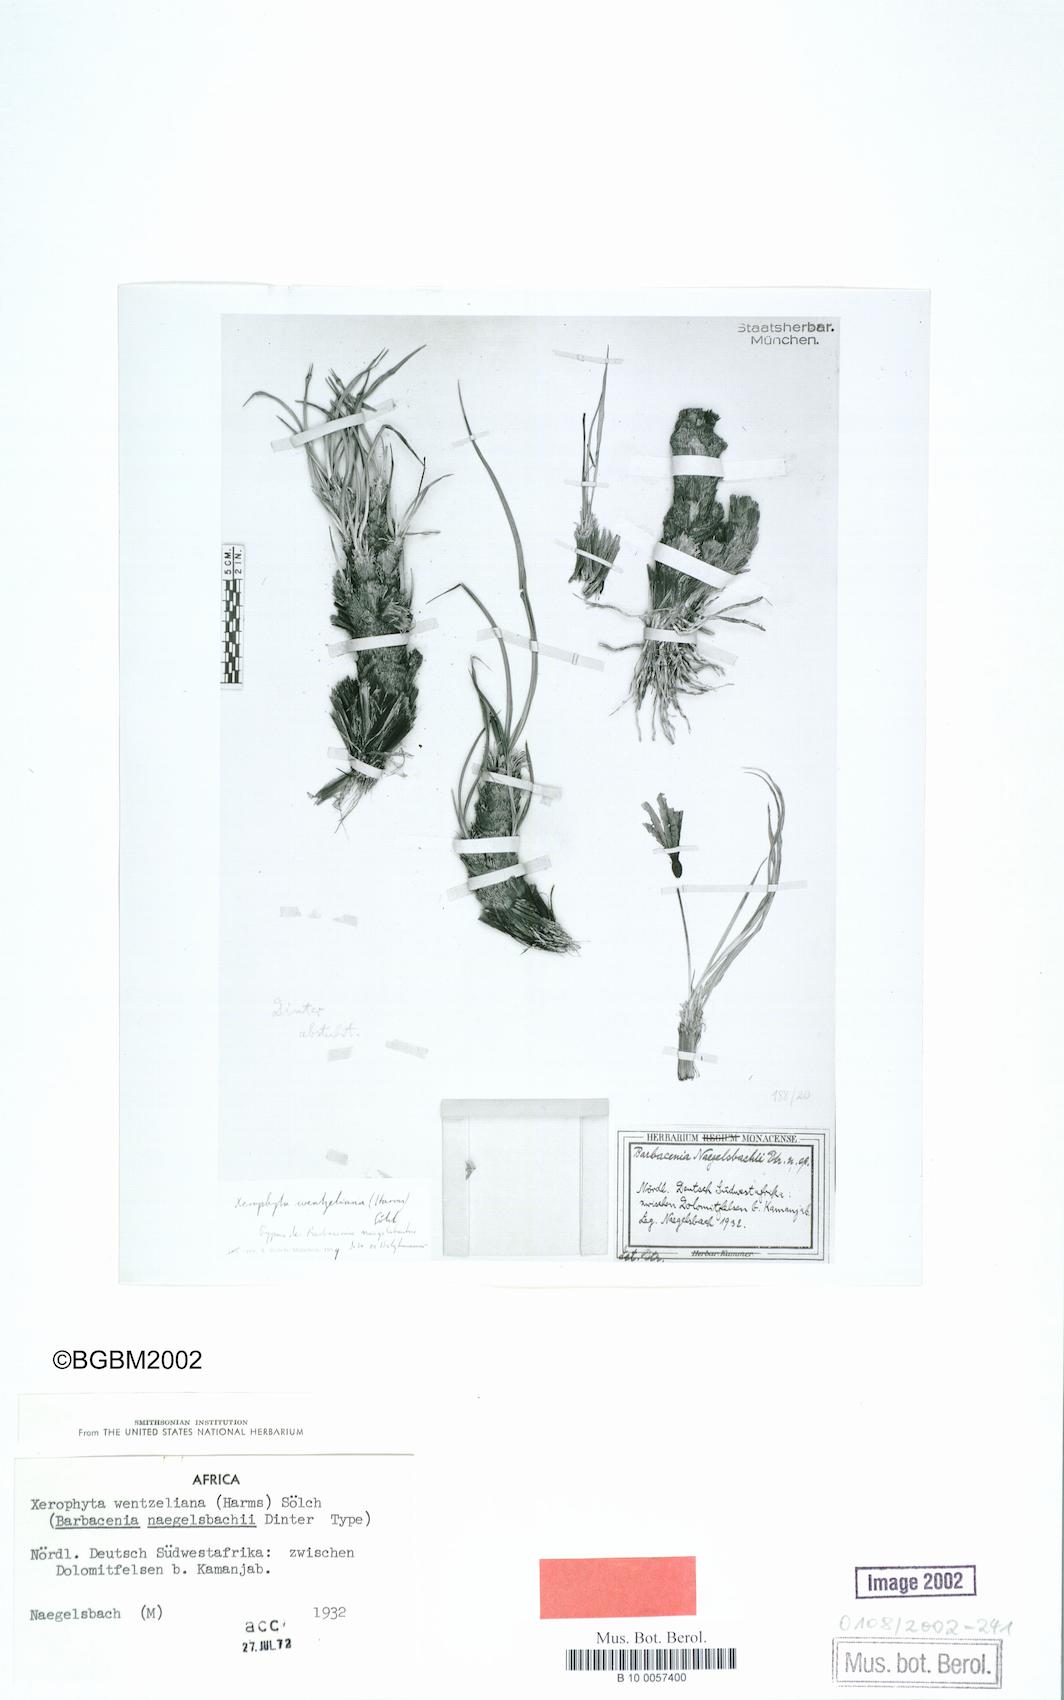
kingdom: Plantae
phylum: Tracheophyta
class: Liliopsida
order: Pandanales
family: Velloziaceae
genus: Xerophyta
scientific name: Xerophyta wentzeliana
